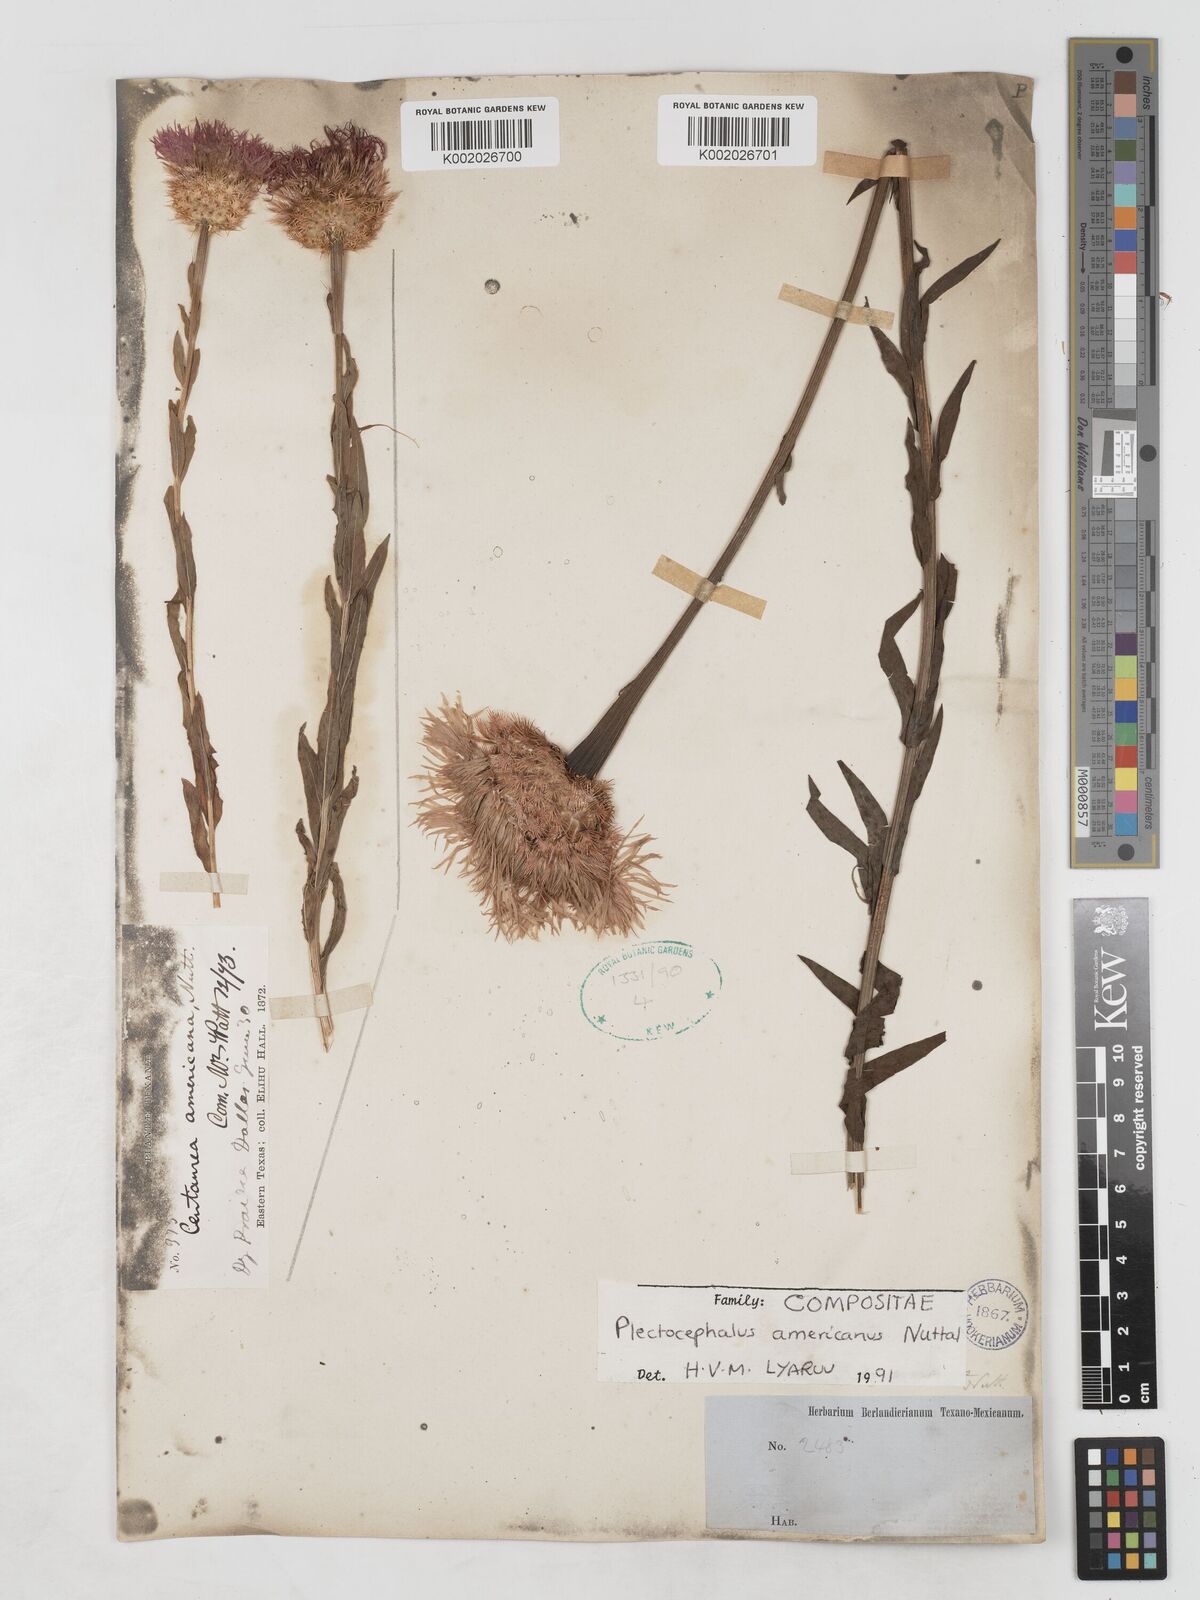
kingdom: Plantae
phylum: Tracheophyta
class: Magnoliopsida
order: Asterales
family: Asteraceae
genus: Plectocephalus
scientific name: Plectocephalus americanus
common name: American basket-flower
